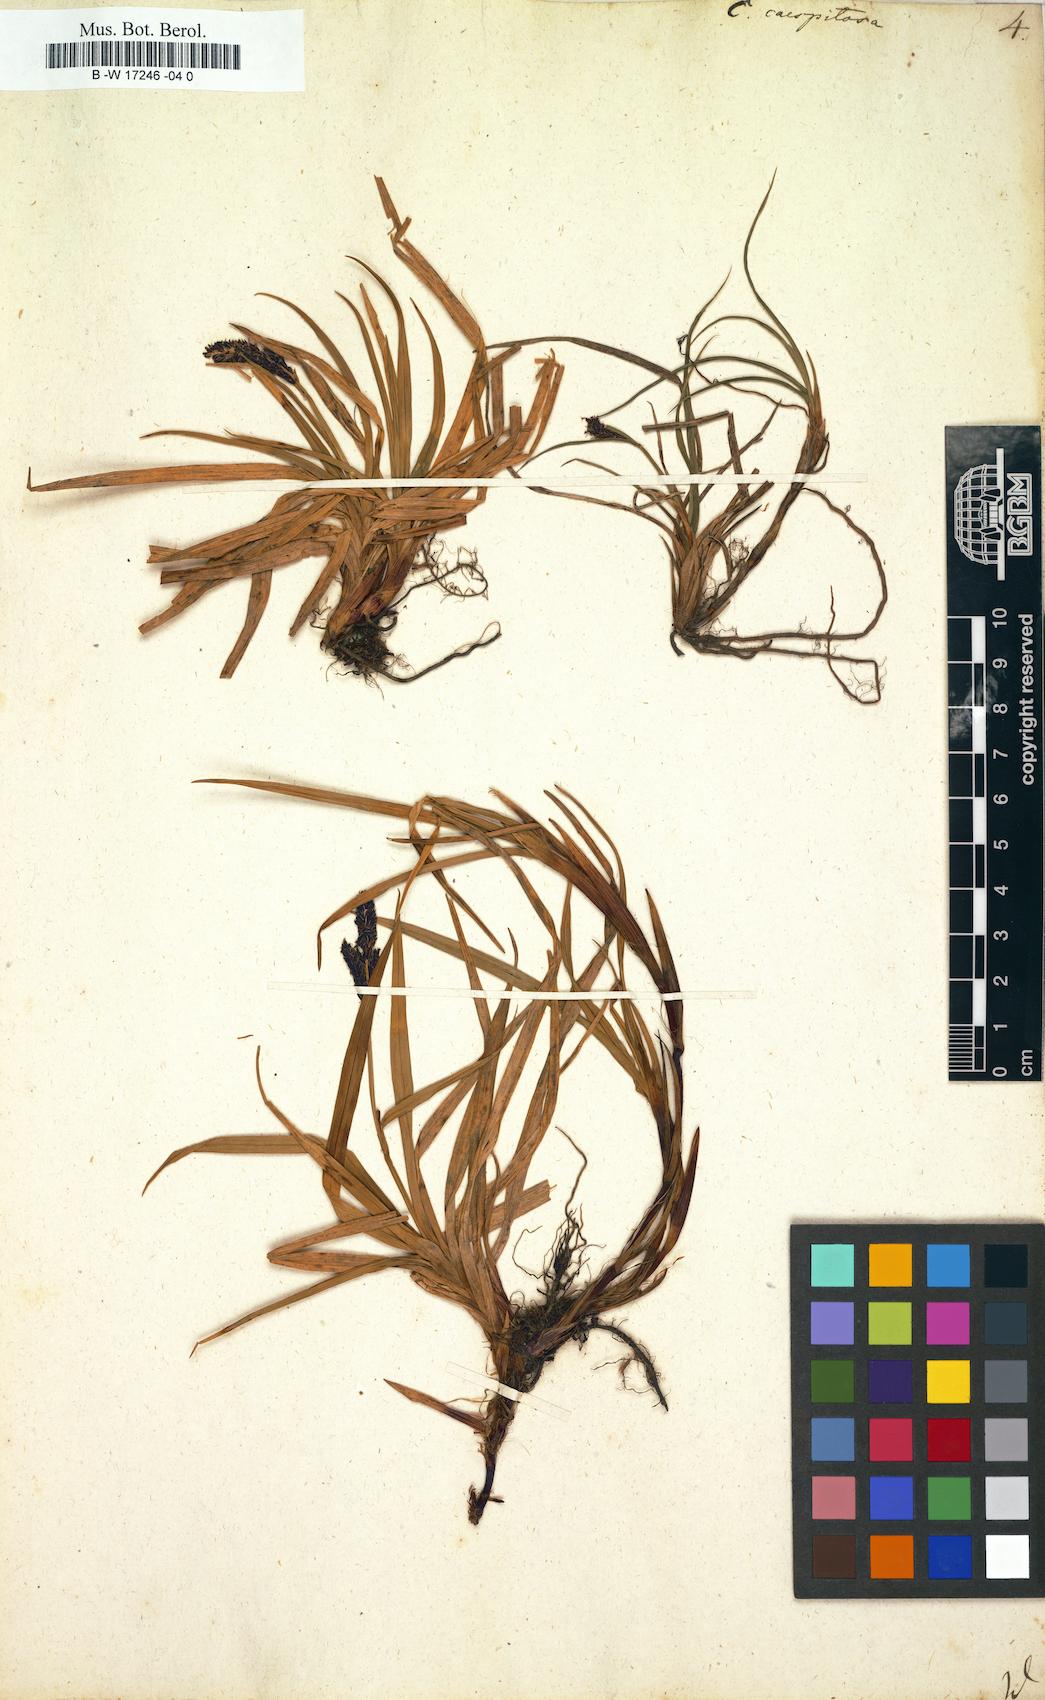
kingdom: Plantae
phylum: Tracheophyta
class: Liliopsida
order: Poales
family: Cyperaceae
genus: Carex
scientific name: Carex cespitosa
